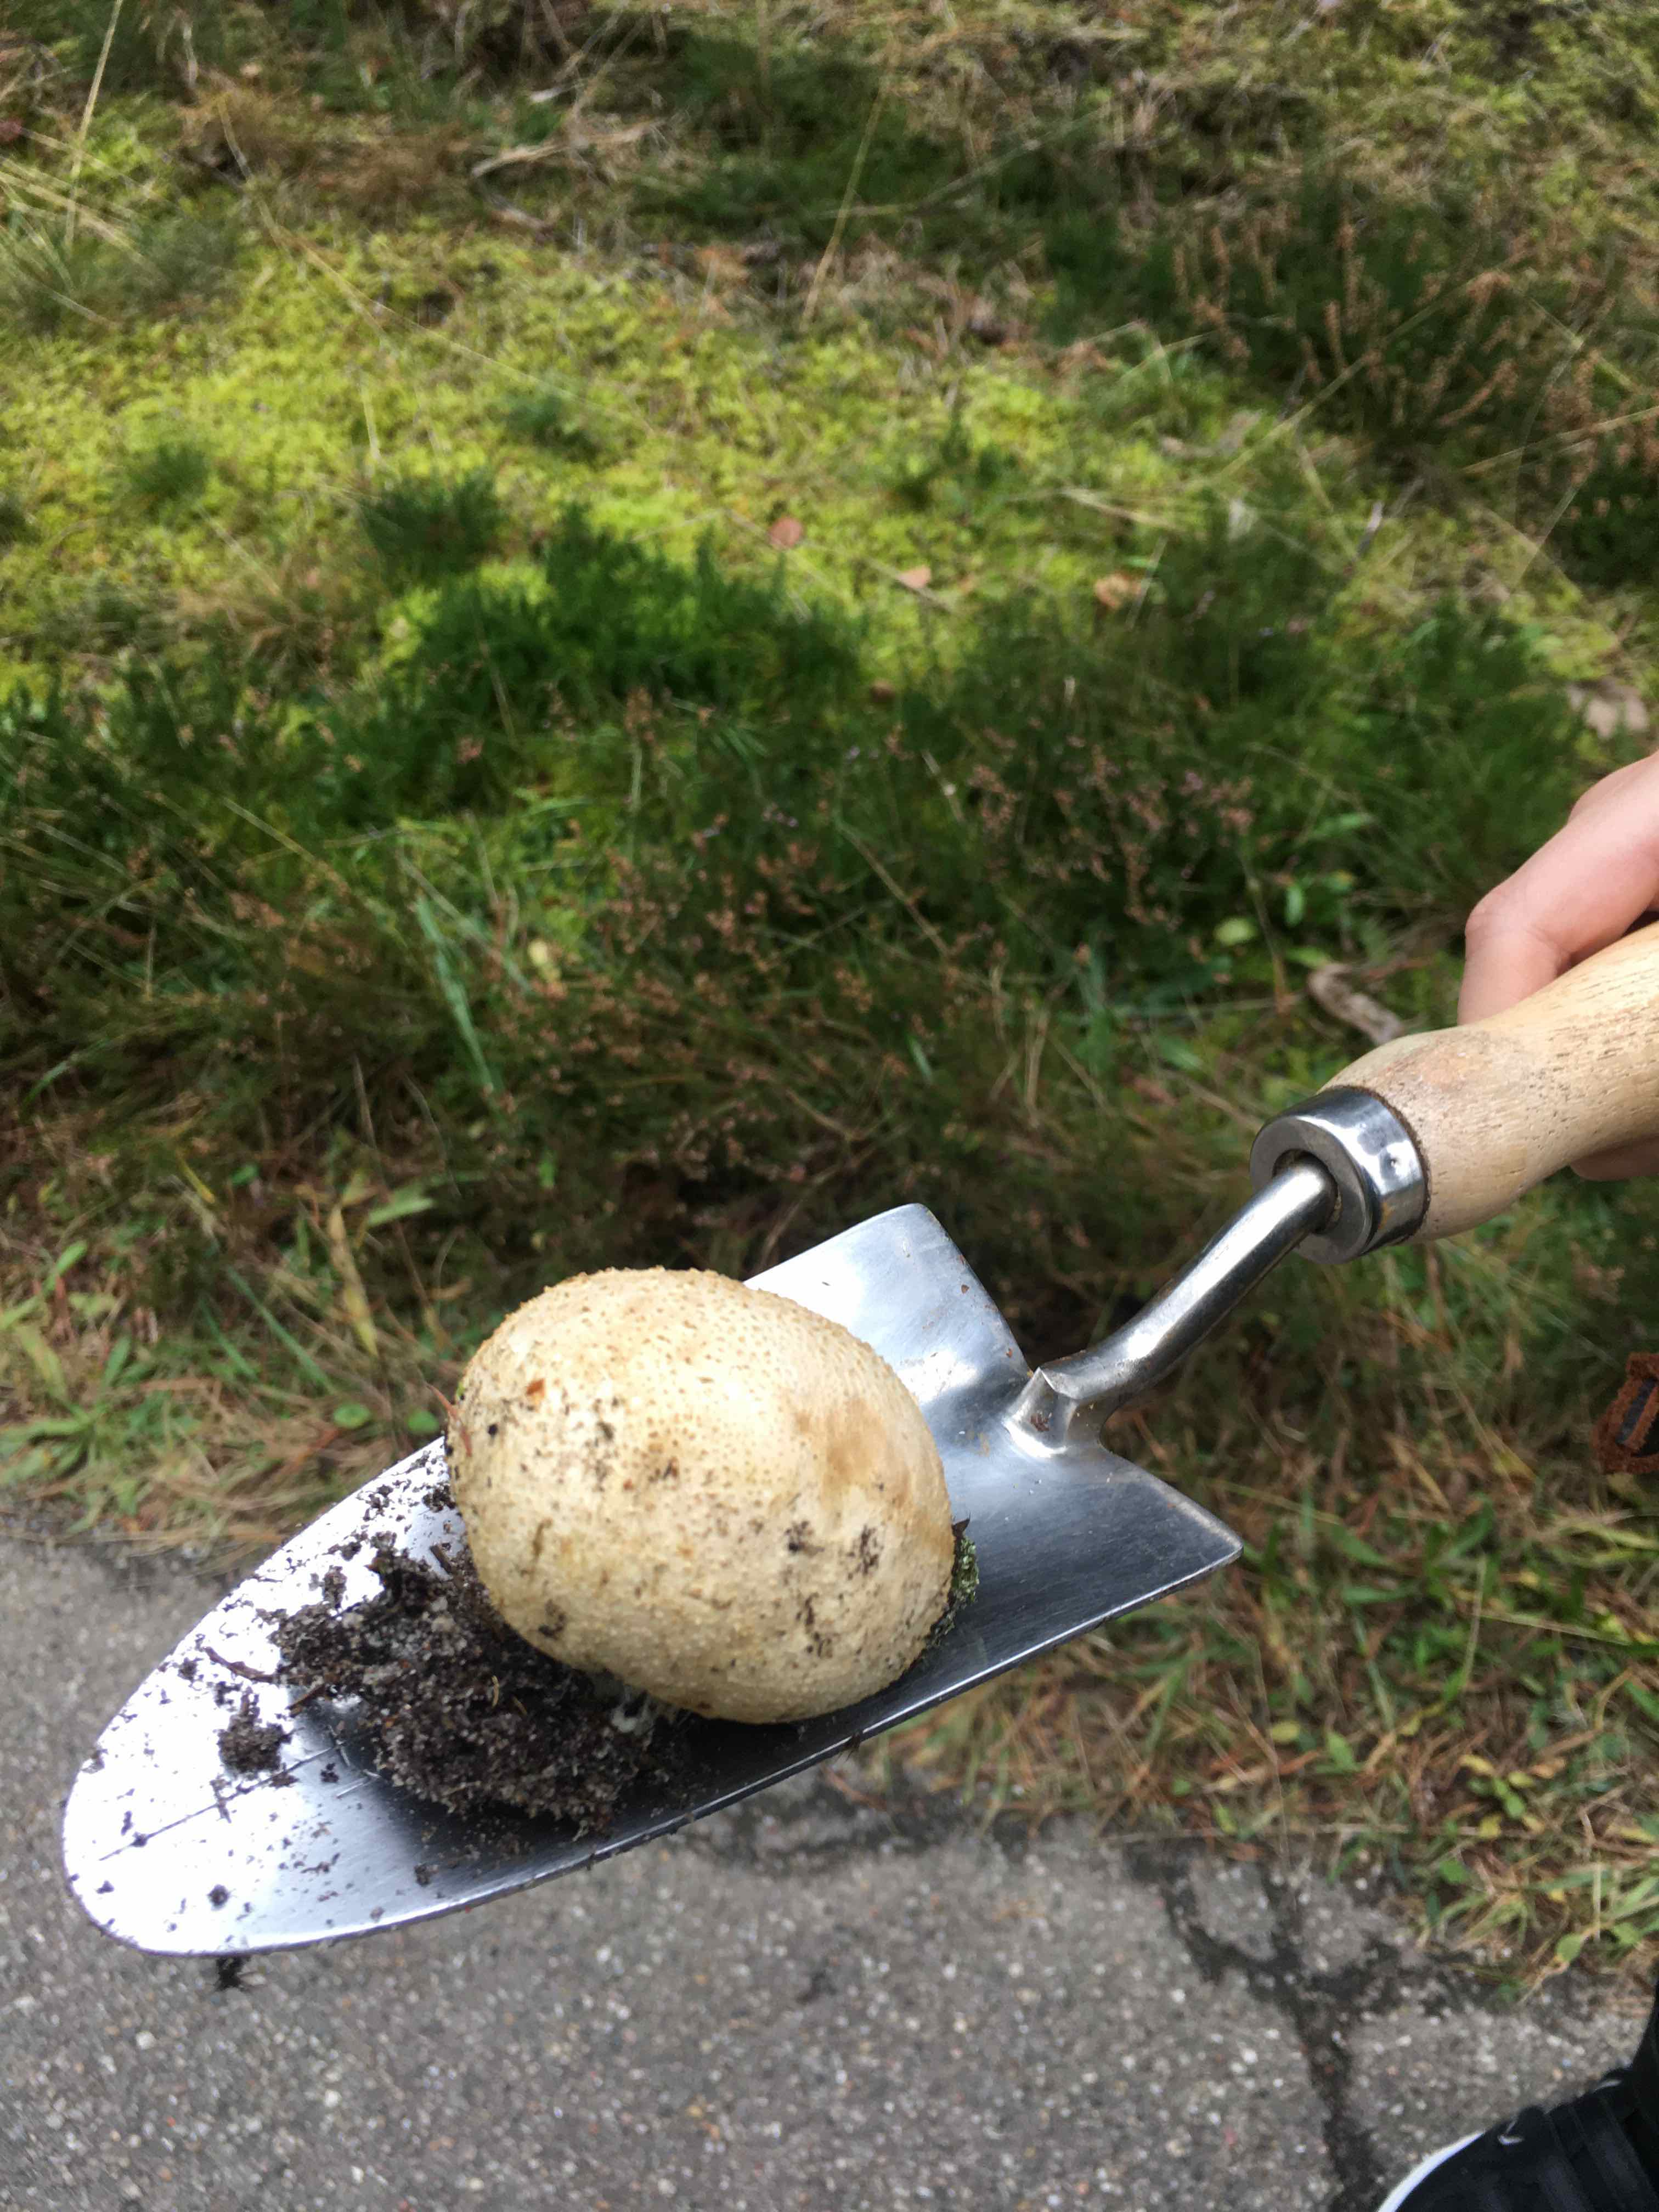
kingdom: Fungi
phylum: Basidiomycota
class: Agaricomycetes
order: Boletales
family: Sclerodermataceae
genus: Scleroderma
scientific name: Scleroderma citrinum
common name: almindelig bruskbold
